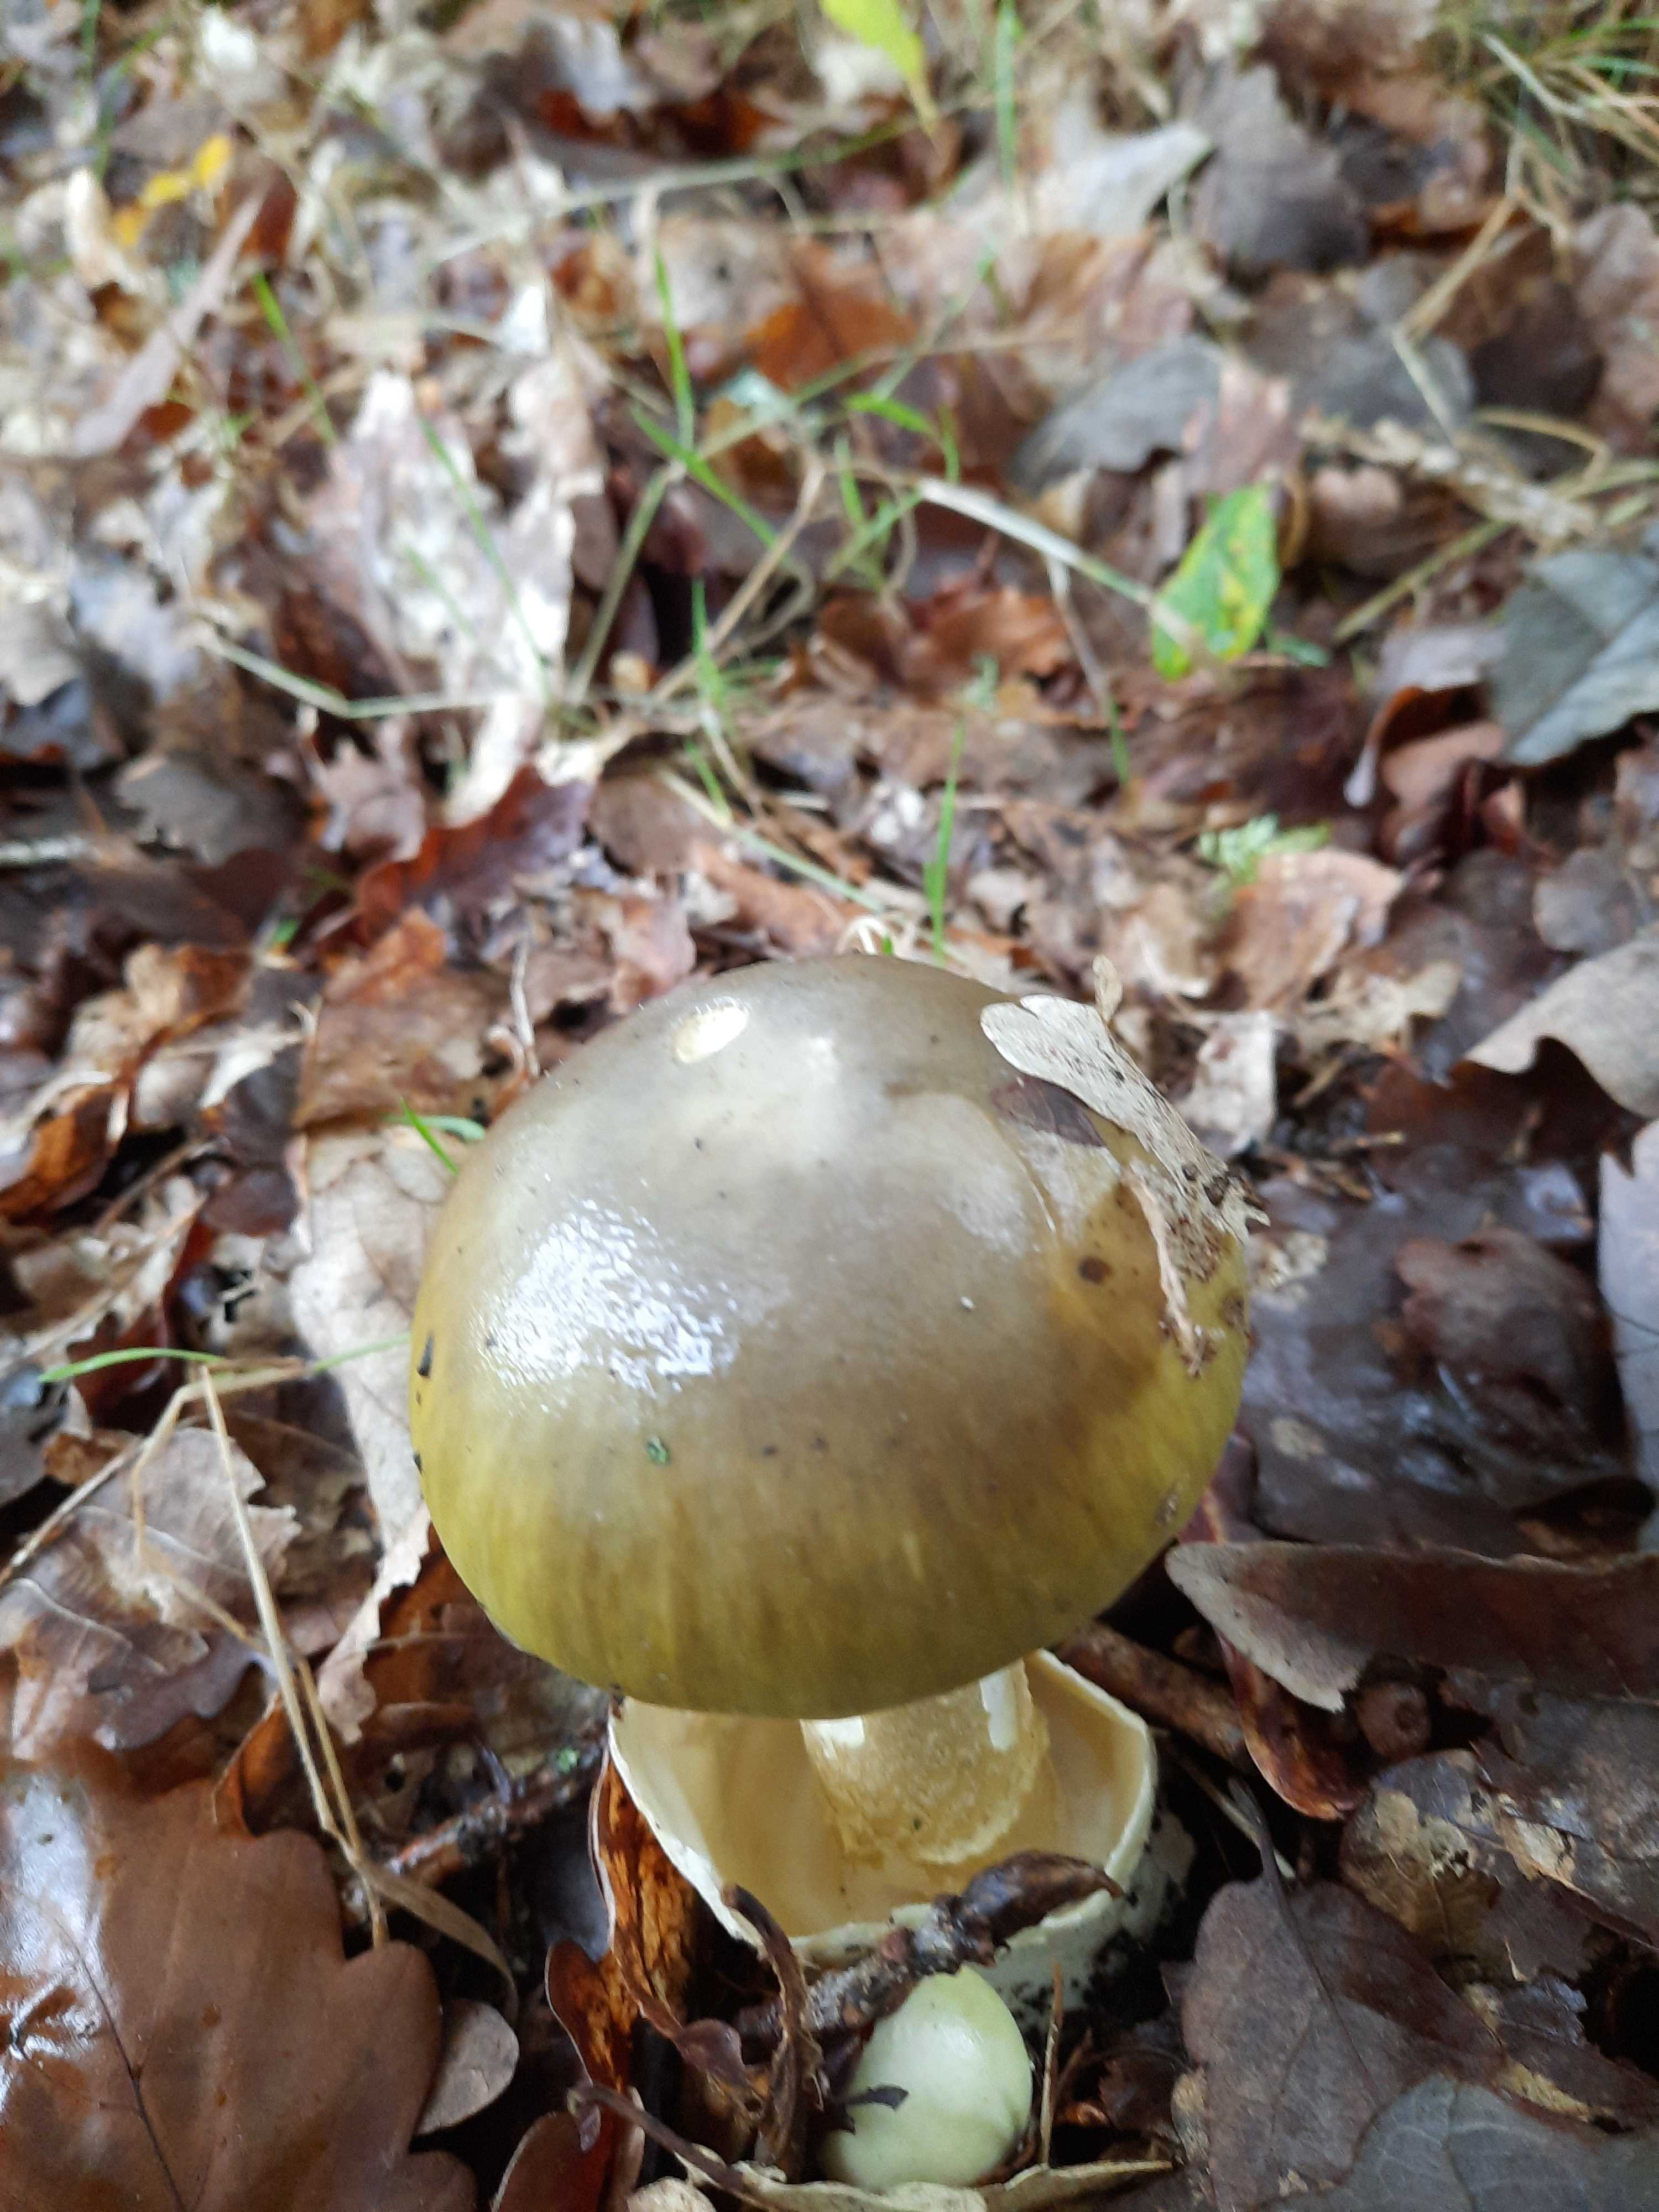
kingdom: Fungi
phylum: Basidiomycota
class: Agaricomycetes
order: Agaricales
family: Amanitaceae
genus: Amanita
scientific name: Amanita phalloides
